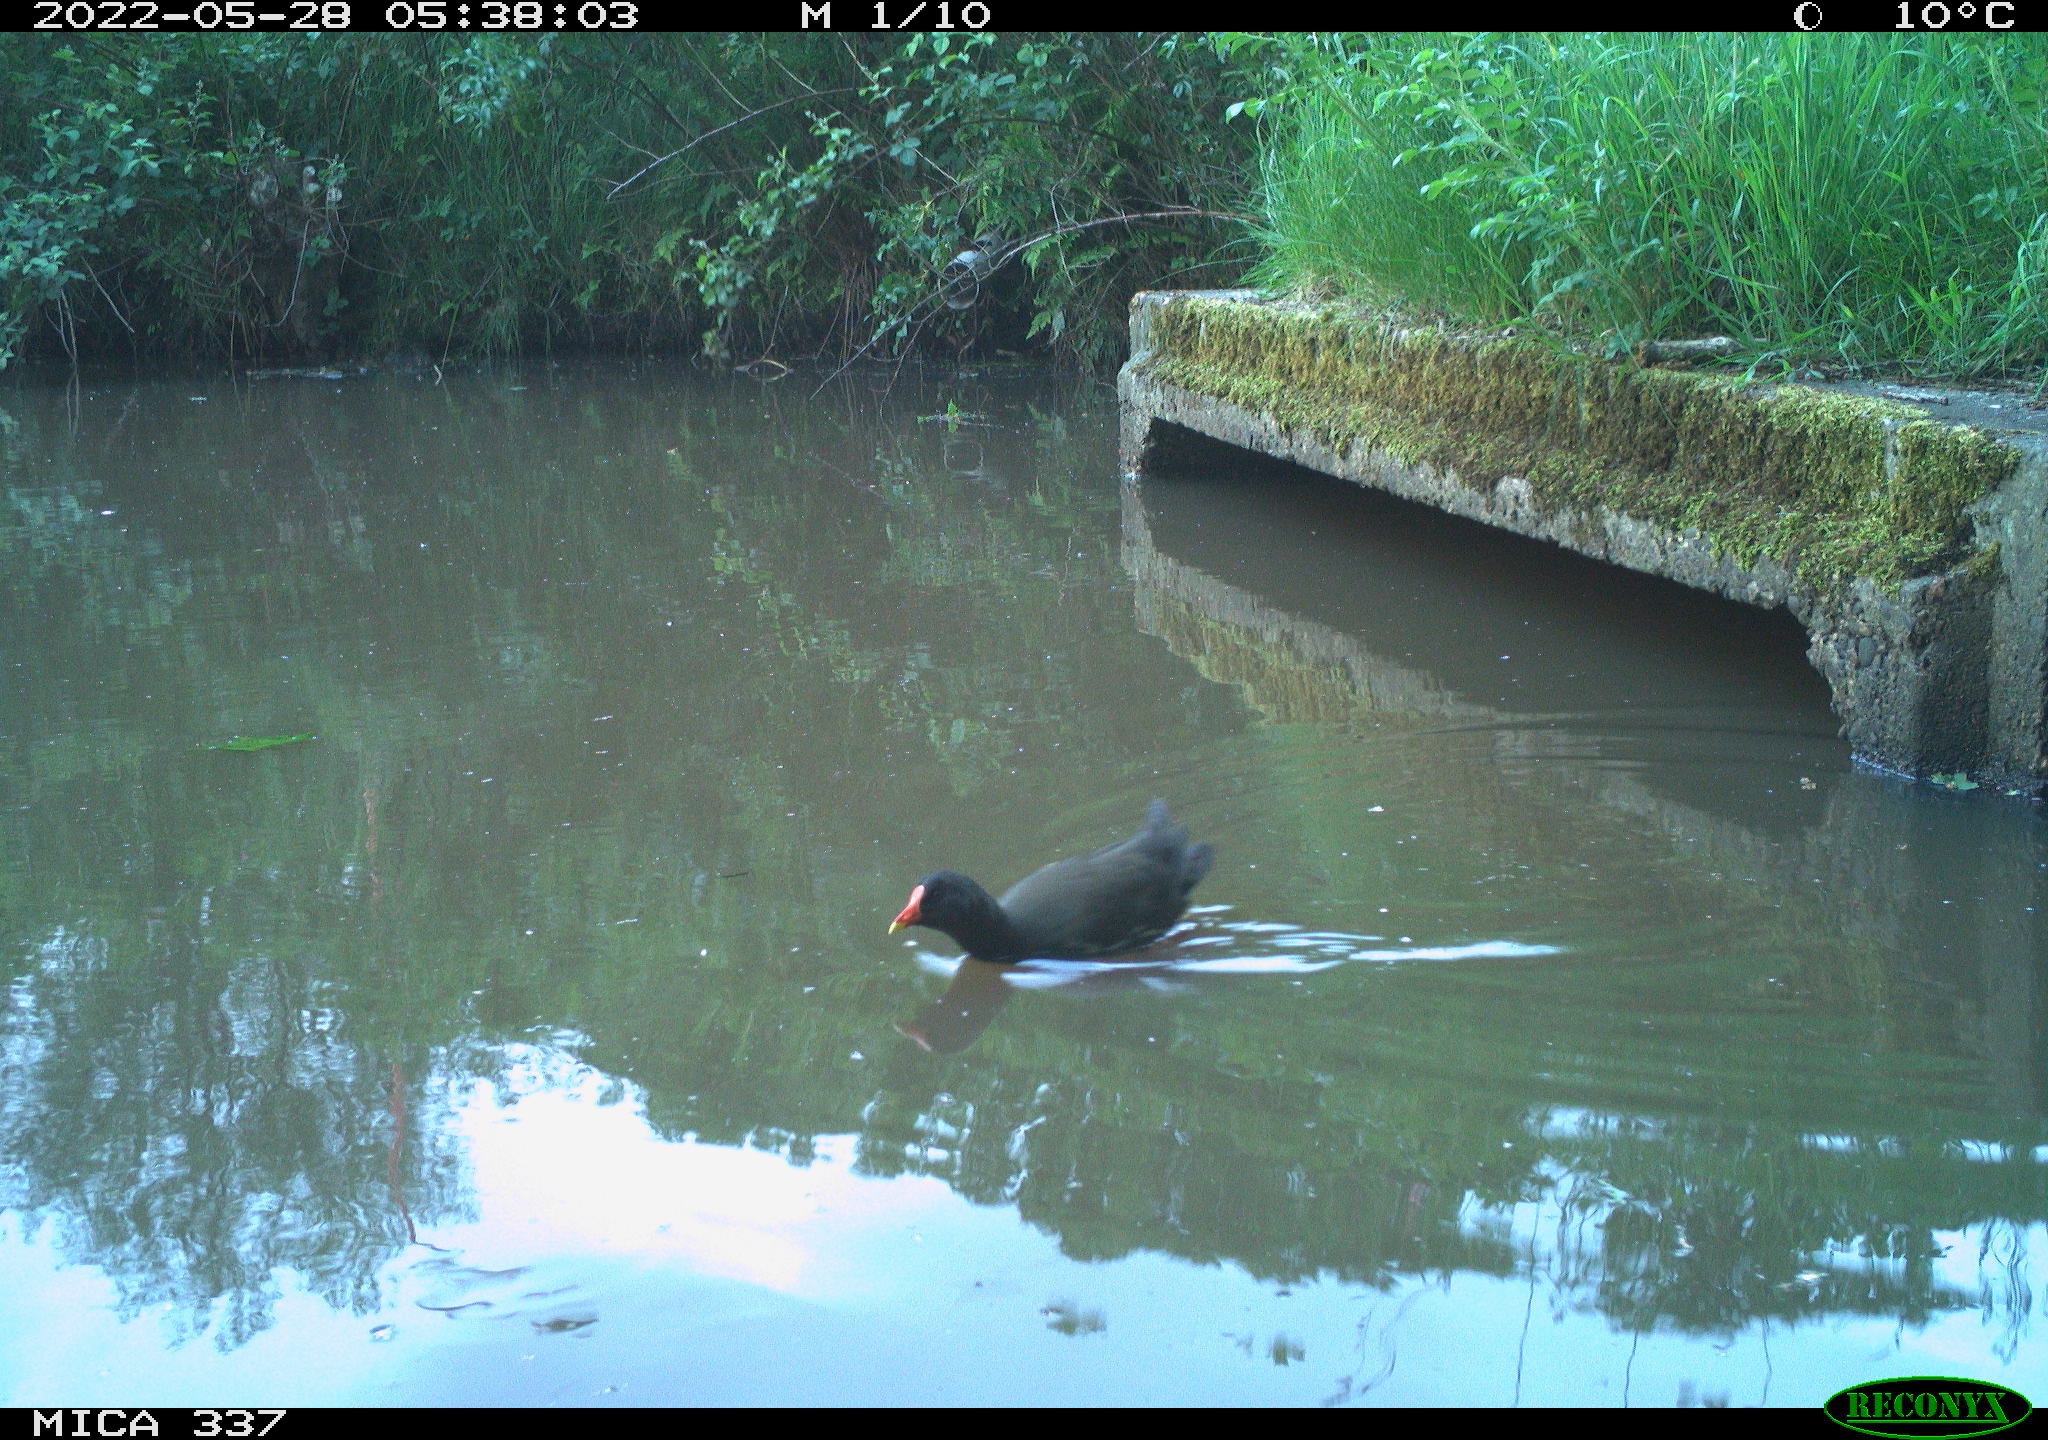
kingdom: Animalia
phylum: Chordata
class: Aves
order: Gruiformes
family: Rallidae
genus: Gallinula
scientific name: Gallinula chloropus
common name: Common moorhen
